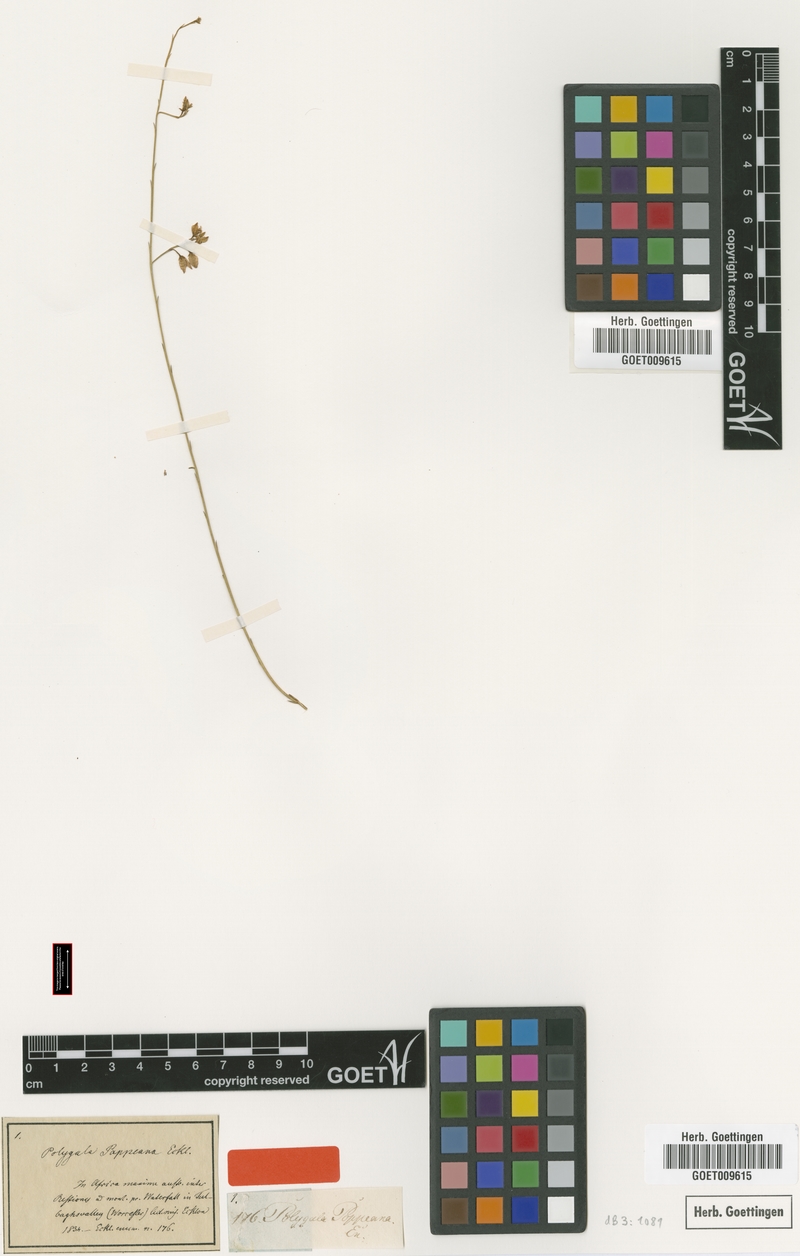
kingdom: Plantae
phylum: Tracheophyta
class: Magnoliopsida
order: Fabales
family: Polygalaceae
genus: Polygala
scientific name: Polygala pappeana
